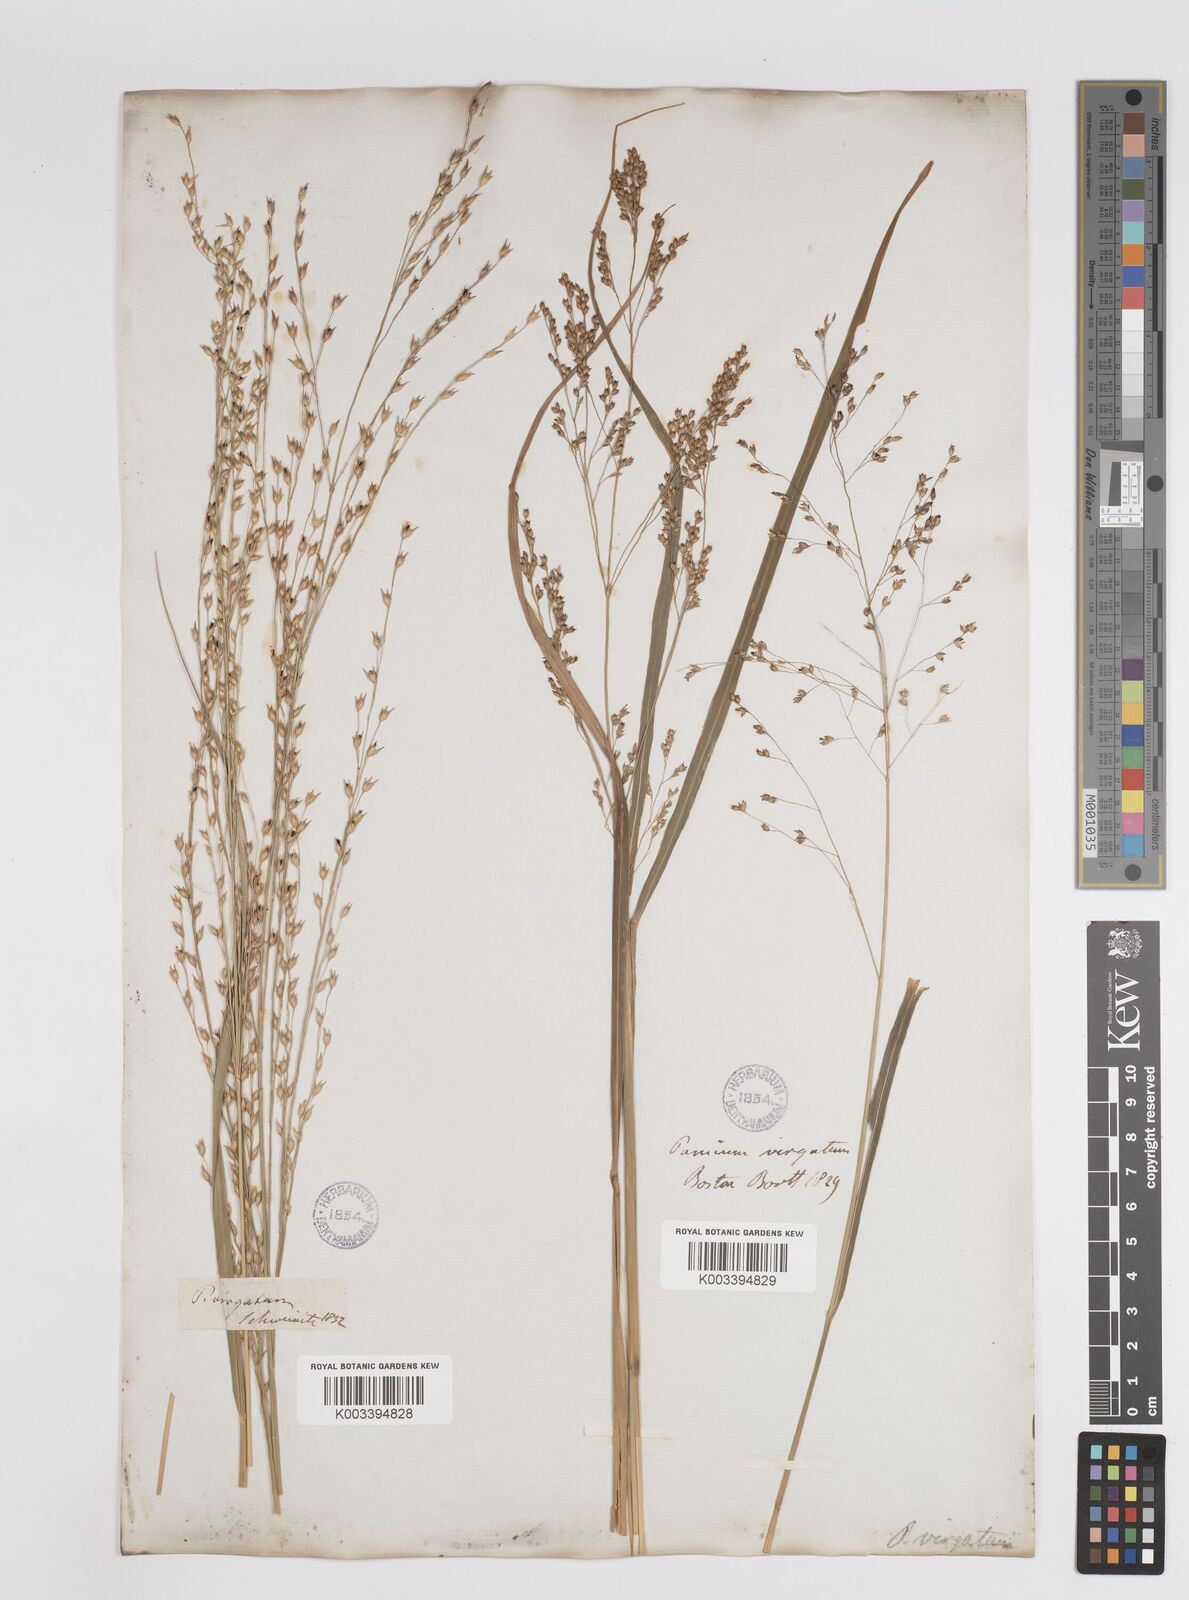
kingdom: Plantae
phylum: Tracheophyta
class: Liliopsida
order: Poales
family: Poaceae
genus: Panicum
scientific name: Panicum virgatum
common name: Switchgrass
